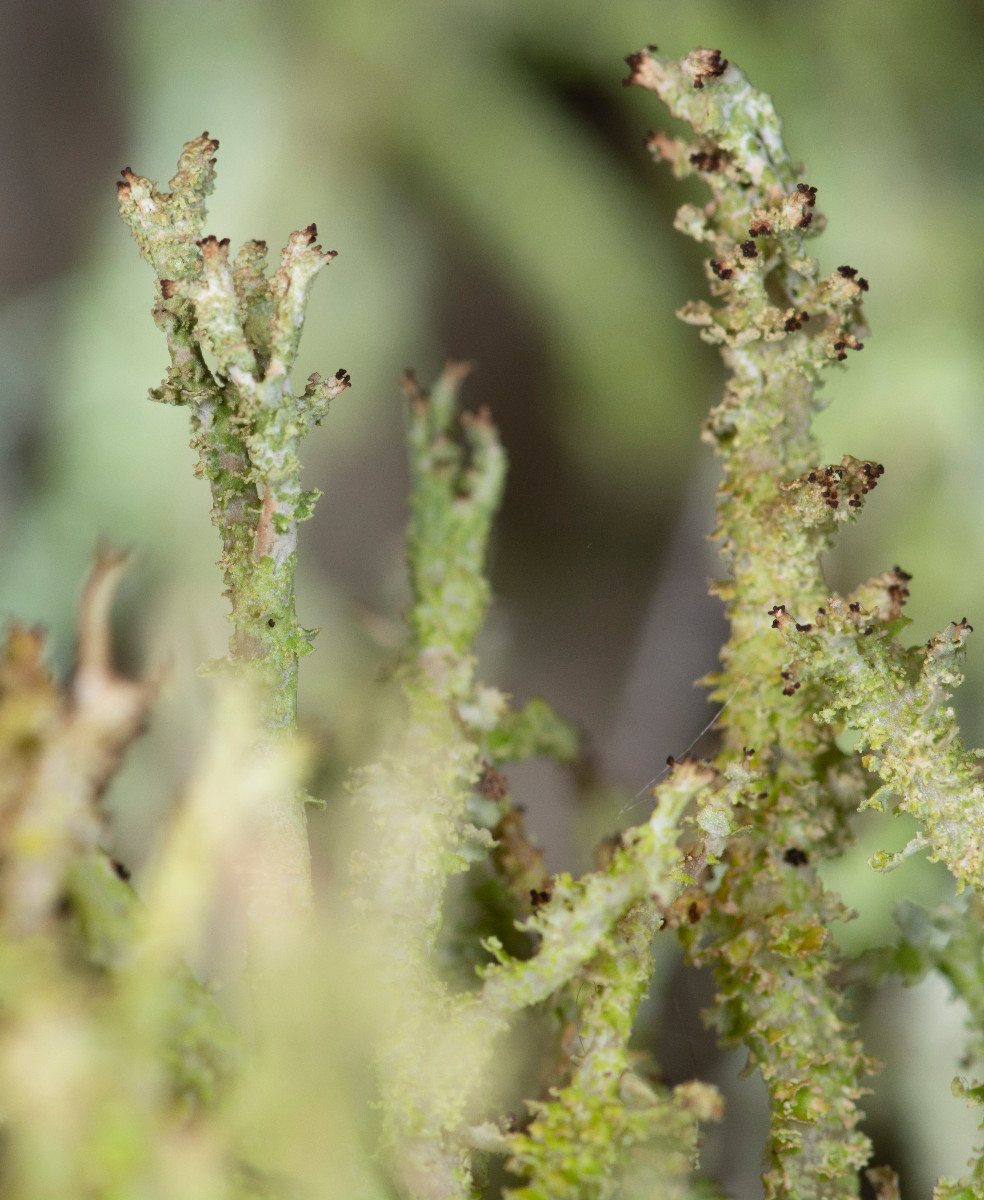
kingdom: Fungi
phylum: Ascomycota
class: Lecanoromycetes
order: Lecanorales
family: Cladoniaceae
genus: Cladonia
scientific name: Cladonia squamosa
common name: skælklædt bægerlav
